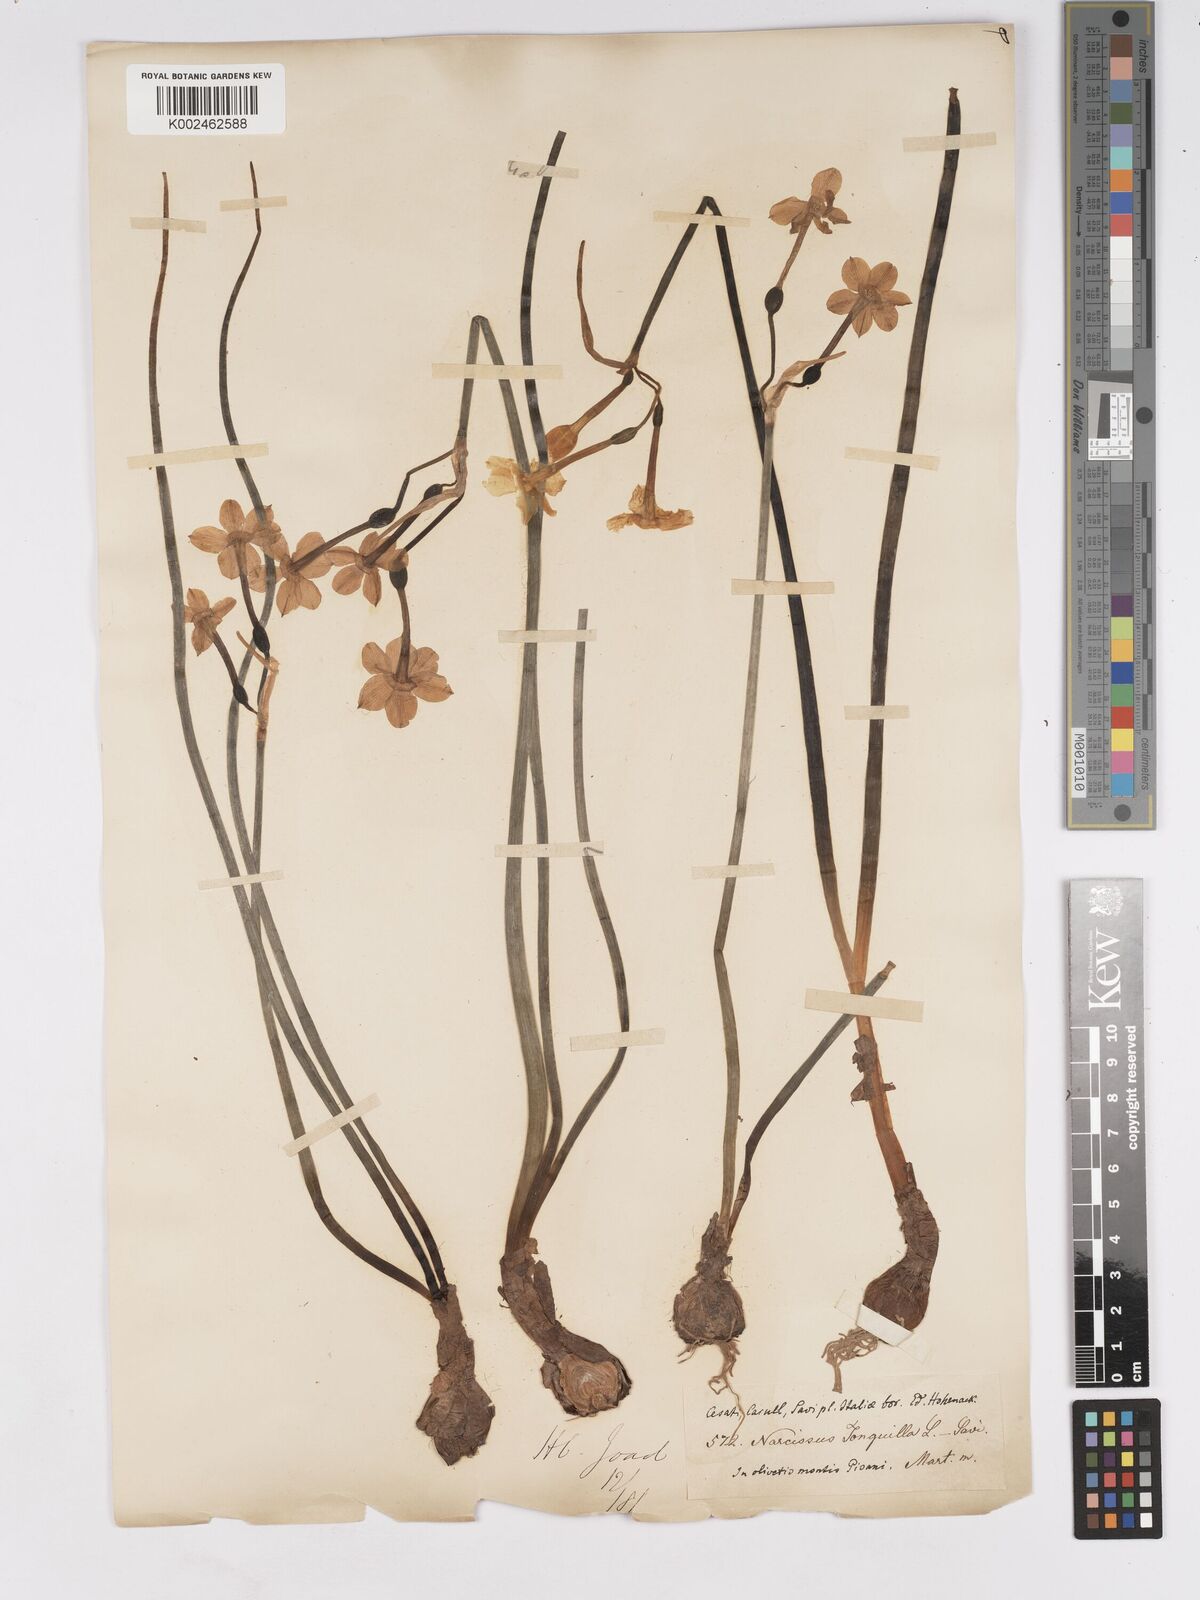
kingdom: Plantae
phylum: Tracheophyta
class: Liliopsida
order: Asparagales
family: Amaryllidaceae
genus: Narcissus
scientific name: Narcissus jonquilla
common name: Jonquil
